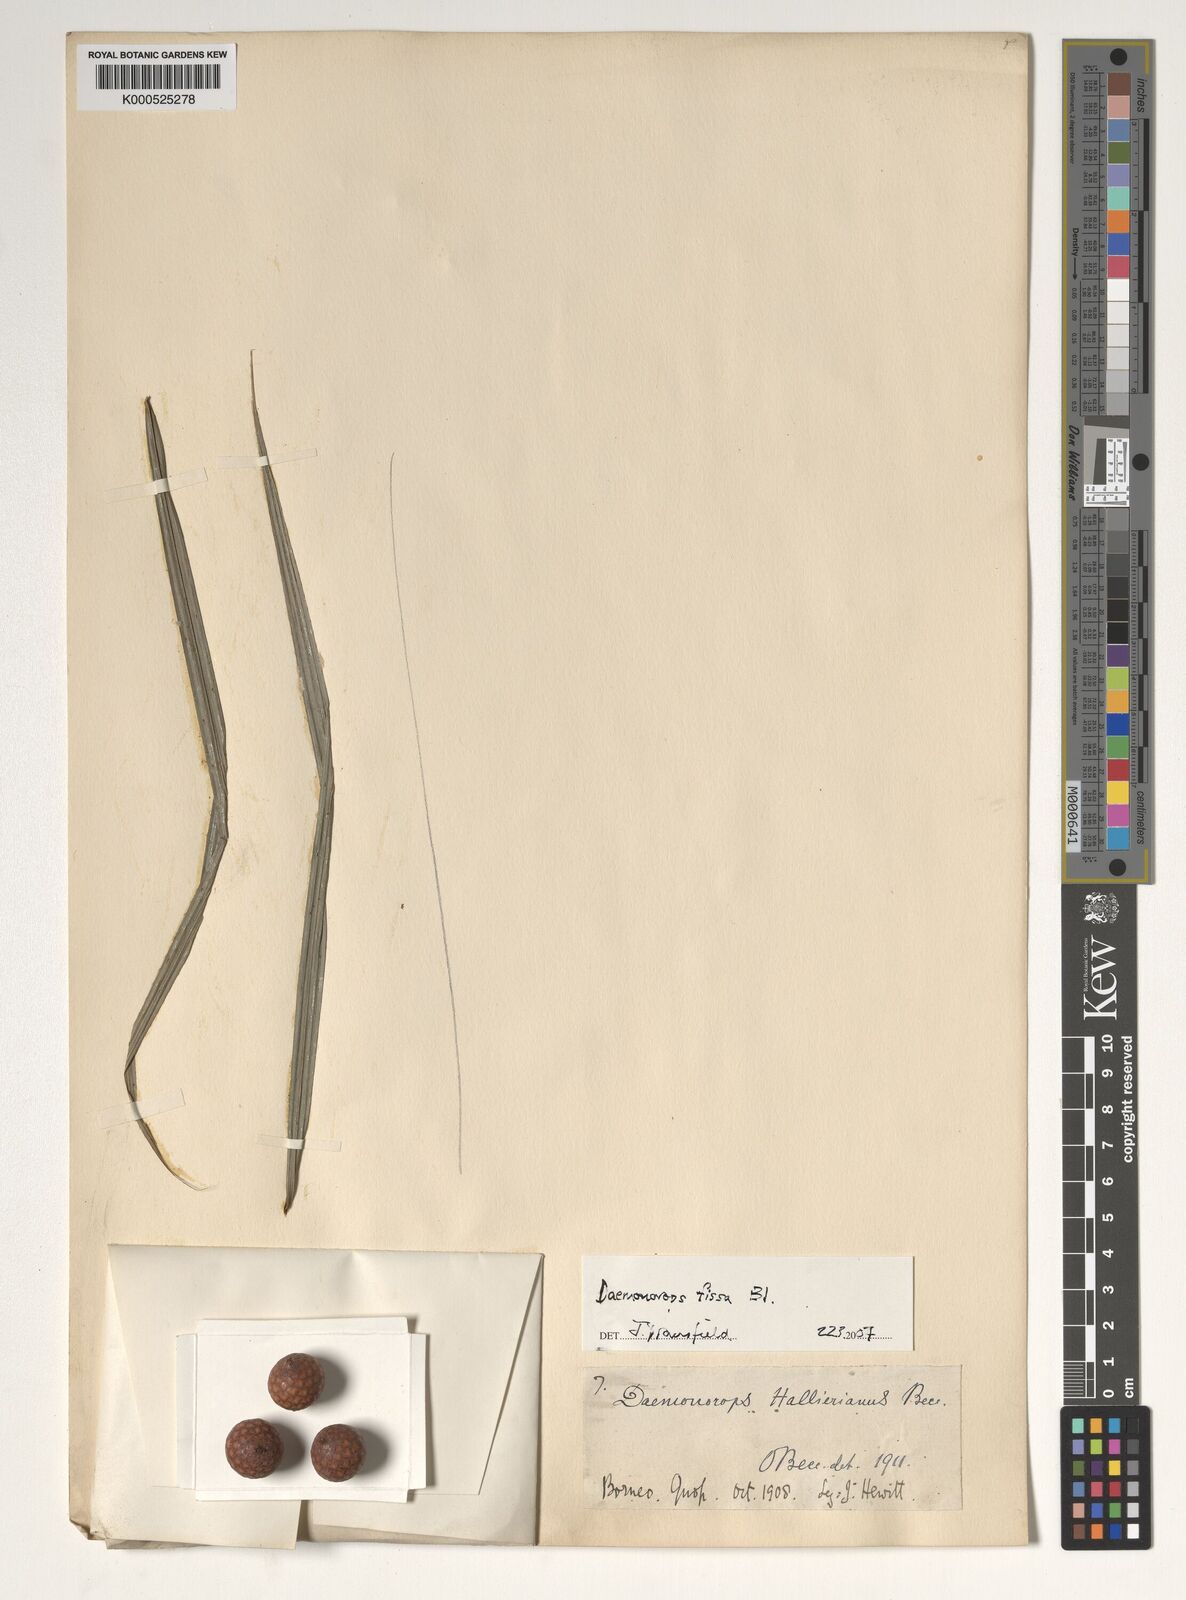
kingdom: Plantae
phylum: Tracheophyta
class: Liliopsida
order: Arecales
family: Arecaceae
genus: Calamus
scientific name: Calamus melanochaetes
